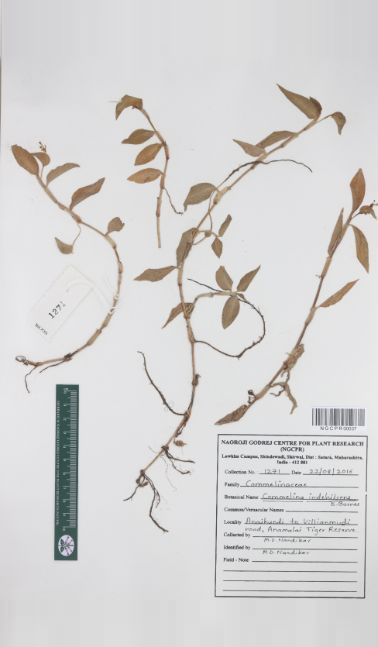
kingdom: Plantae
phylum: Tracheophyta
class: Liliopsida
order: Commelinales
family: Commelinaceae
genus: Commelina
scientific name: Commelina indehiscens
